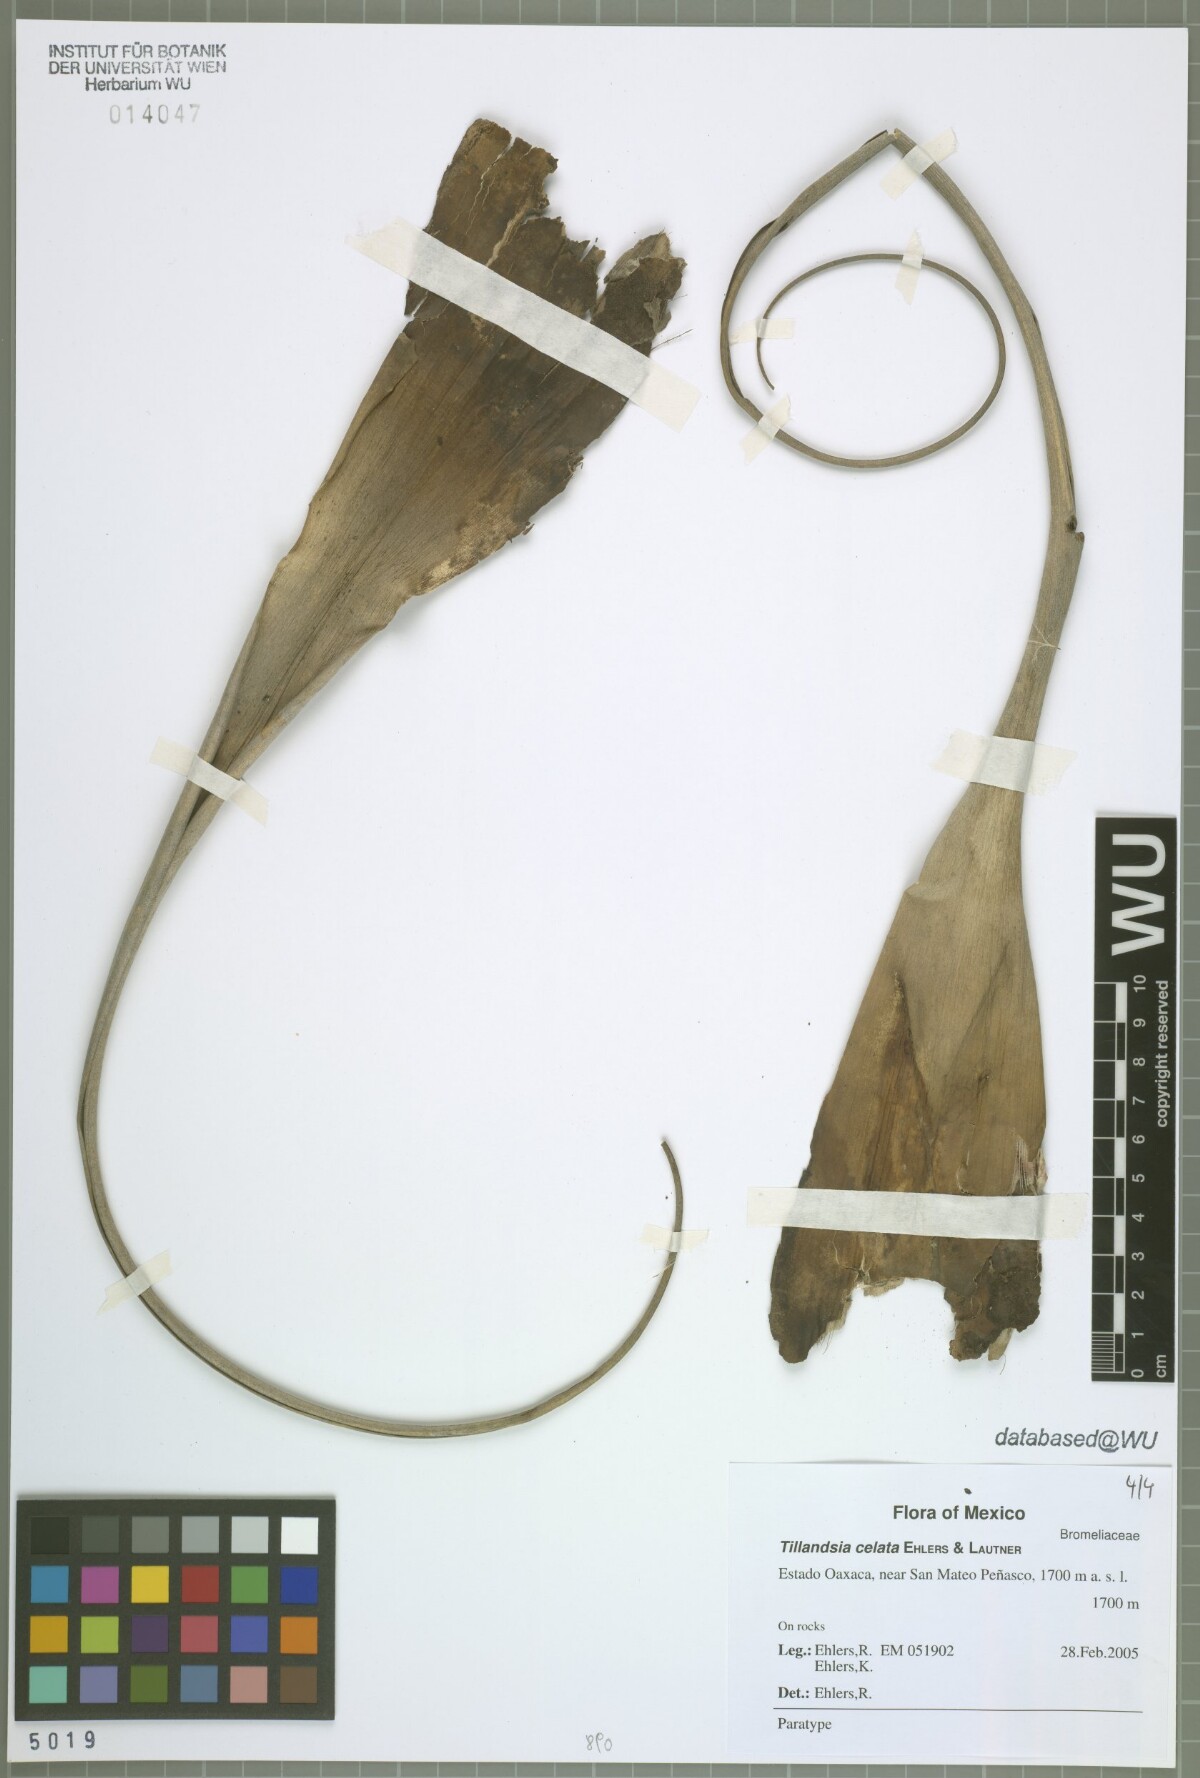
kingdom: Plantae
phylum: Tracheophyta
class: Liliopsida
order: Poales
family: Bromeliaceae
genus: Tillandsia
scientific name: Tillandsia celata
